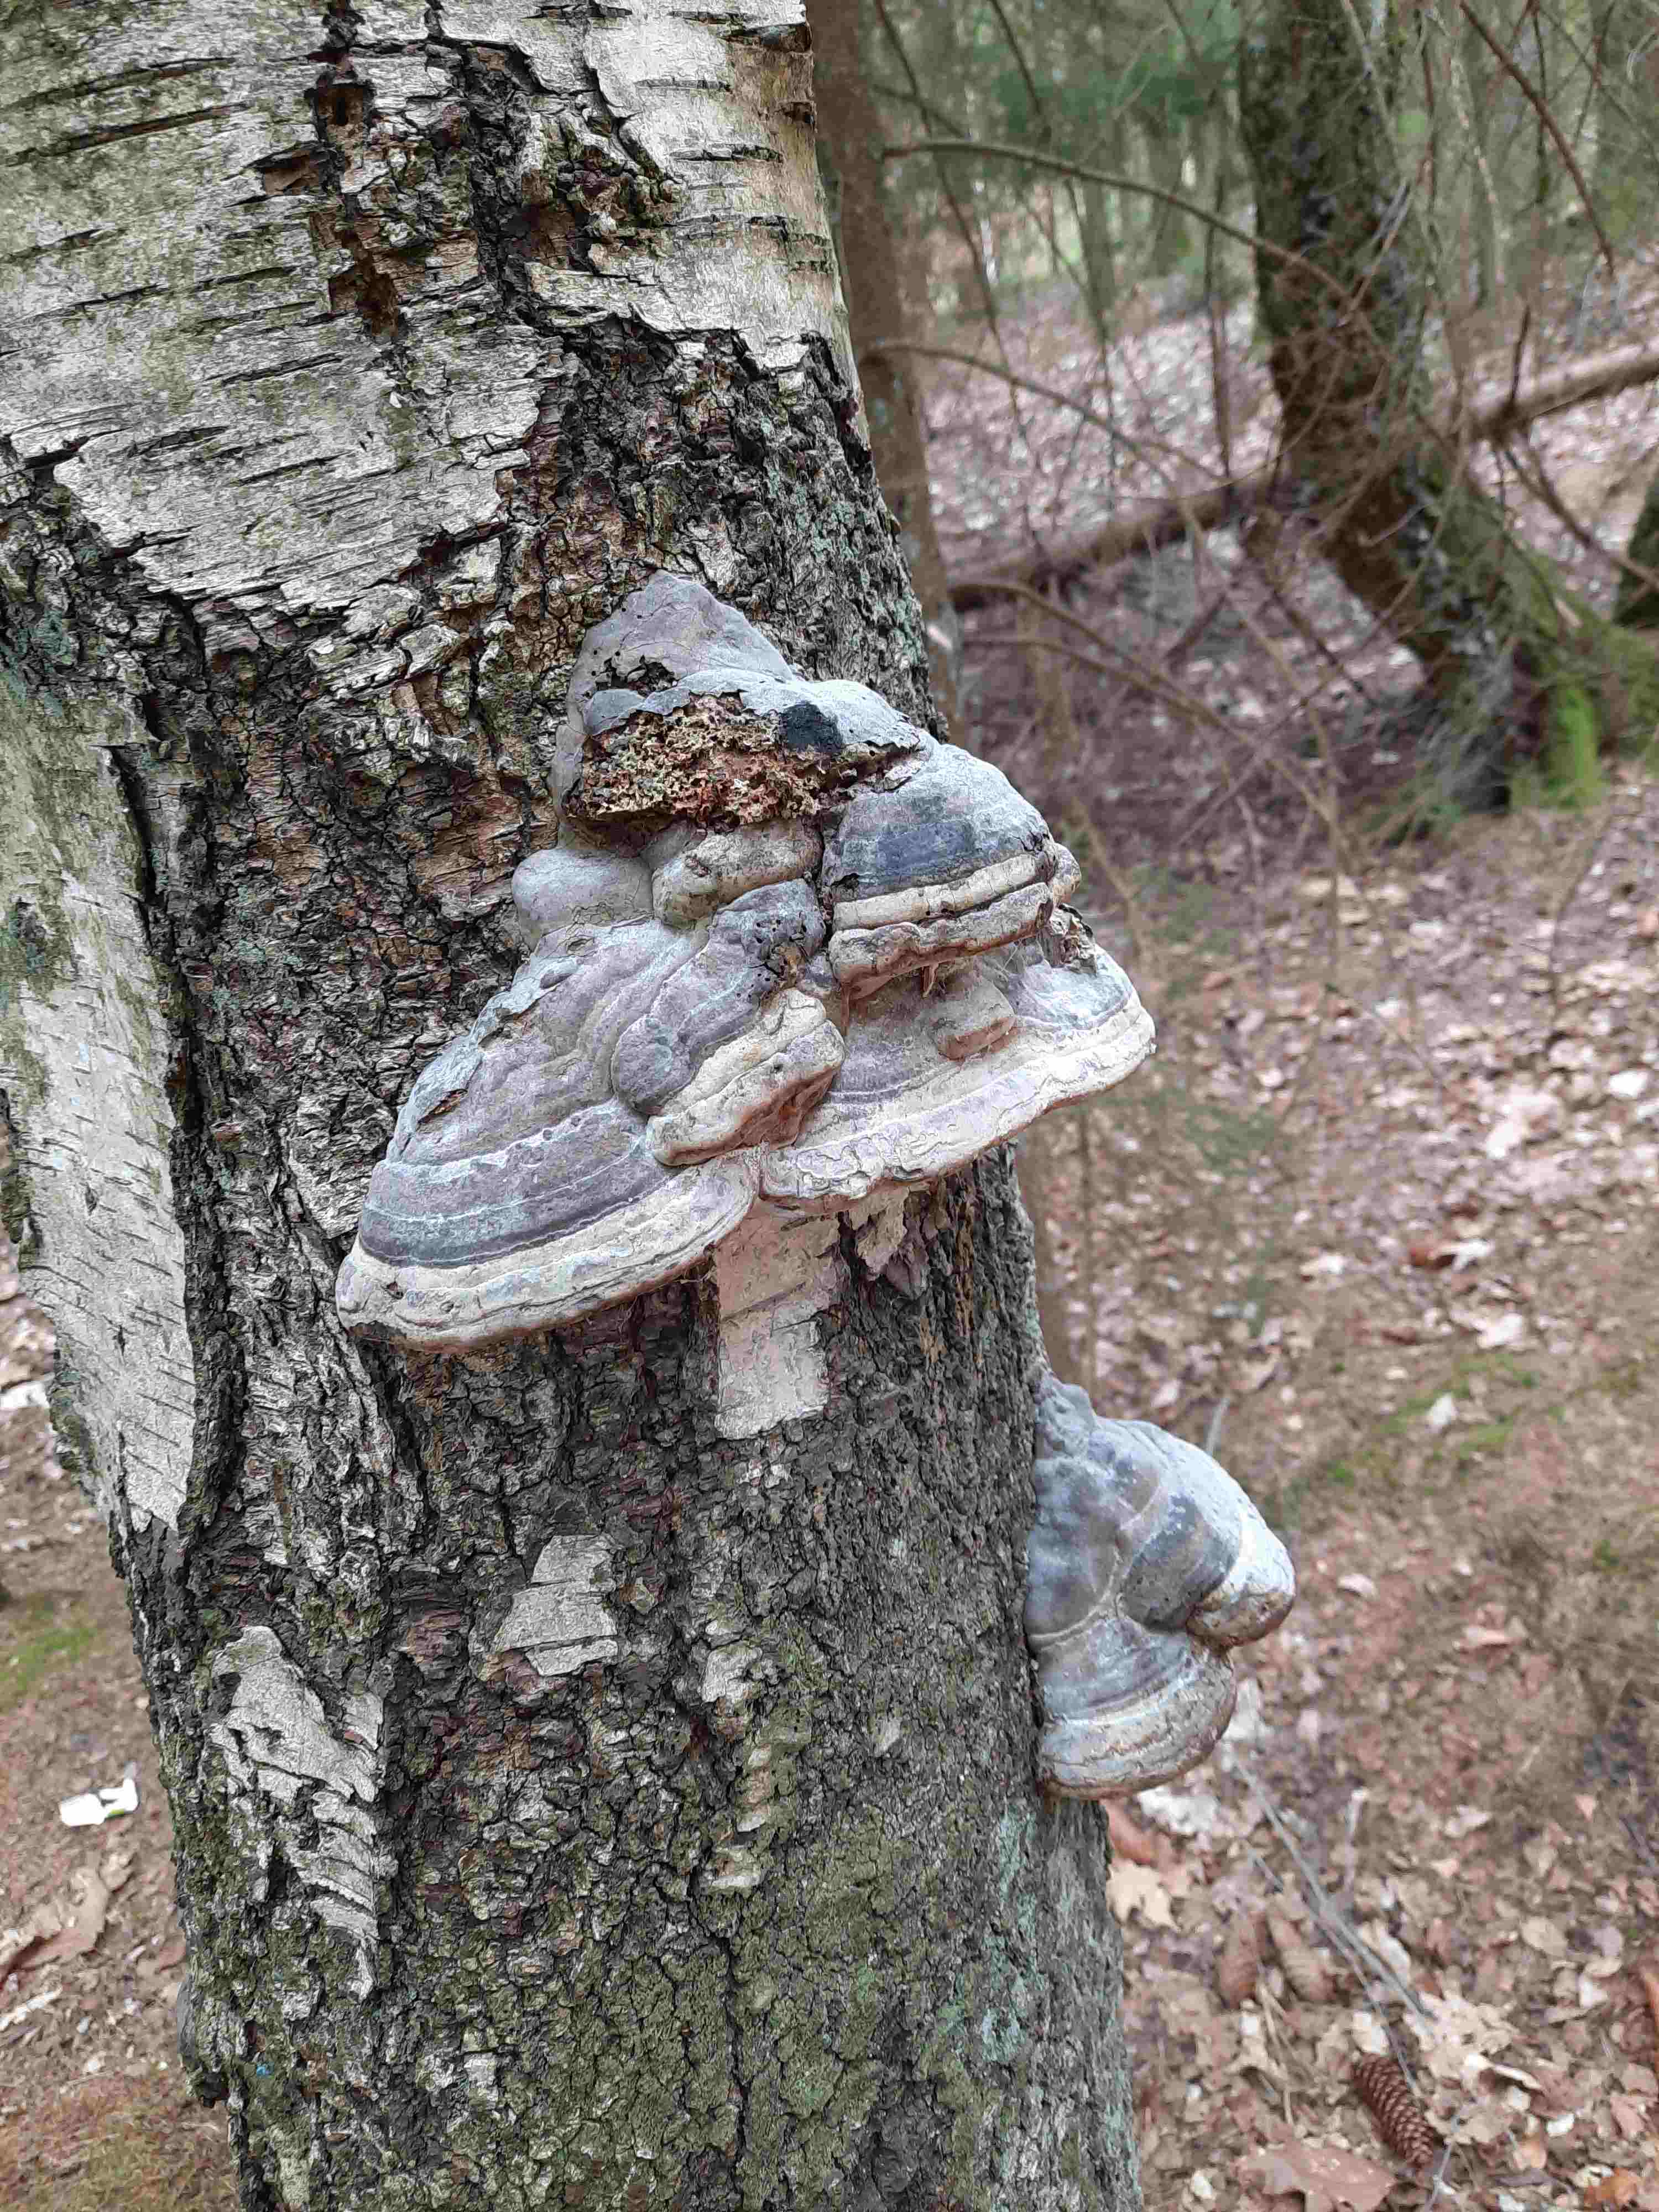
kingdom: Fungi
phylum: Basidiomycota
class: Agaricomycetes
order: Polyporales
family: Polyporaceae
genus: Fomes
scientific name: Fomes fomentarius
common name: tøndersvamp
